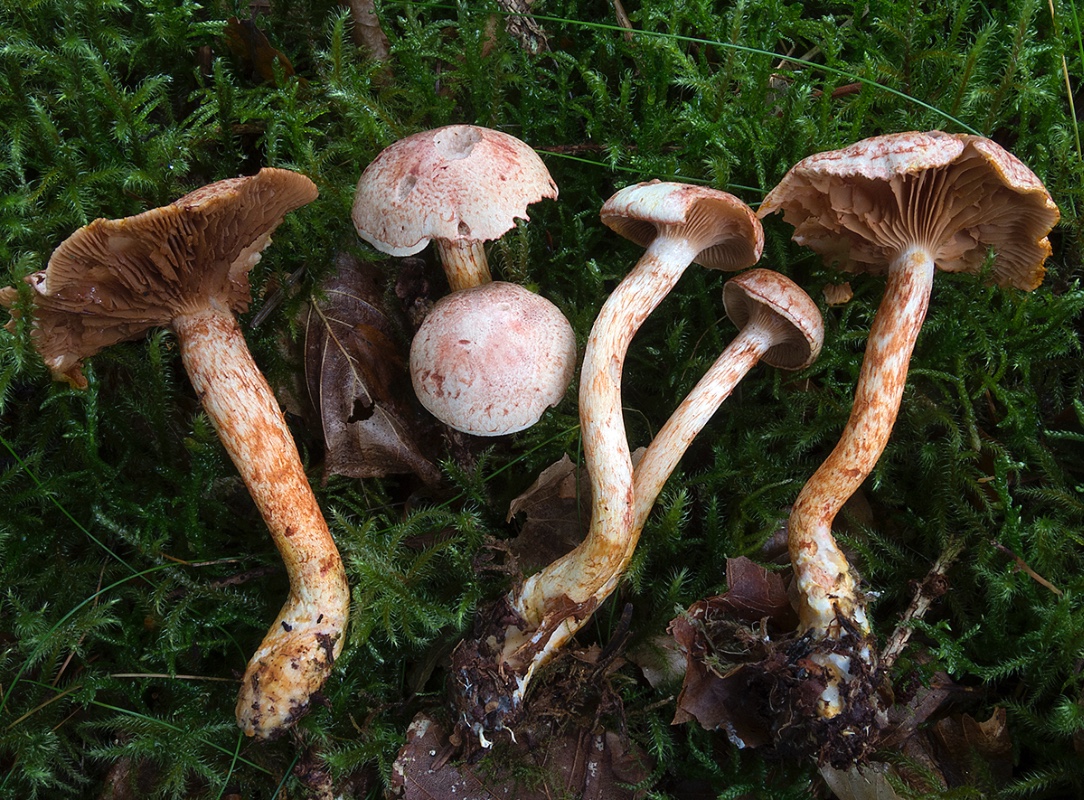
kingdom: Fungi
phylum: Basidiomycota
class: Agaricomycetes
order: Agaricales
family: Cortinariaceae
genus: Cortinarius
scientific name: Cortinarius bolaris
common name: cinnoberskællet slørhat
